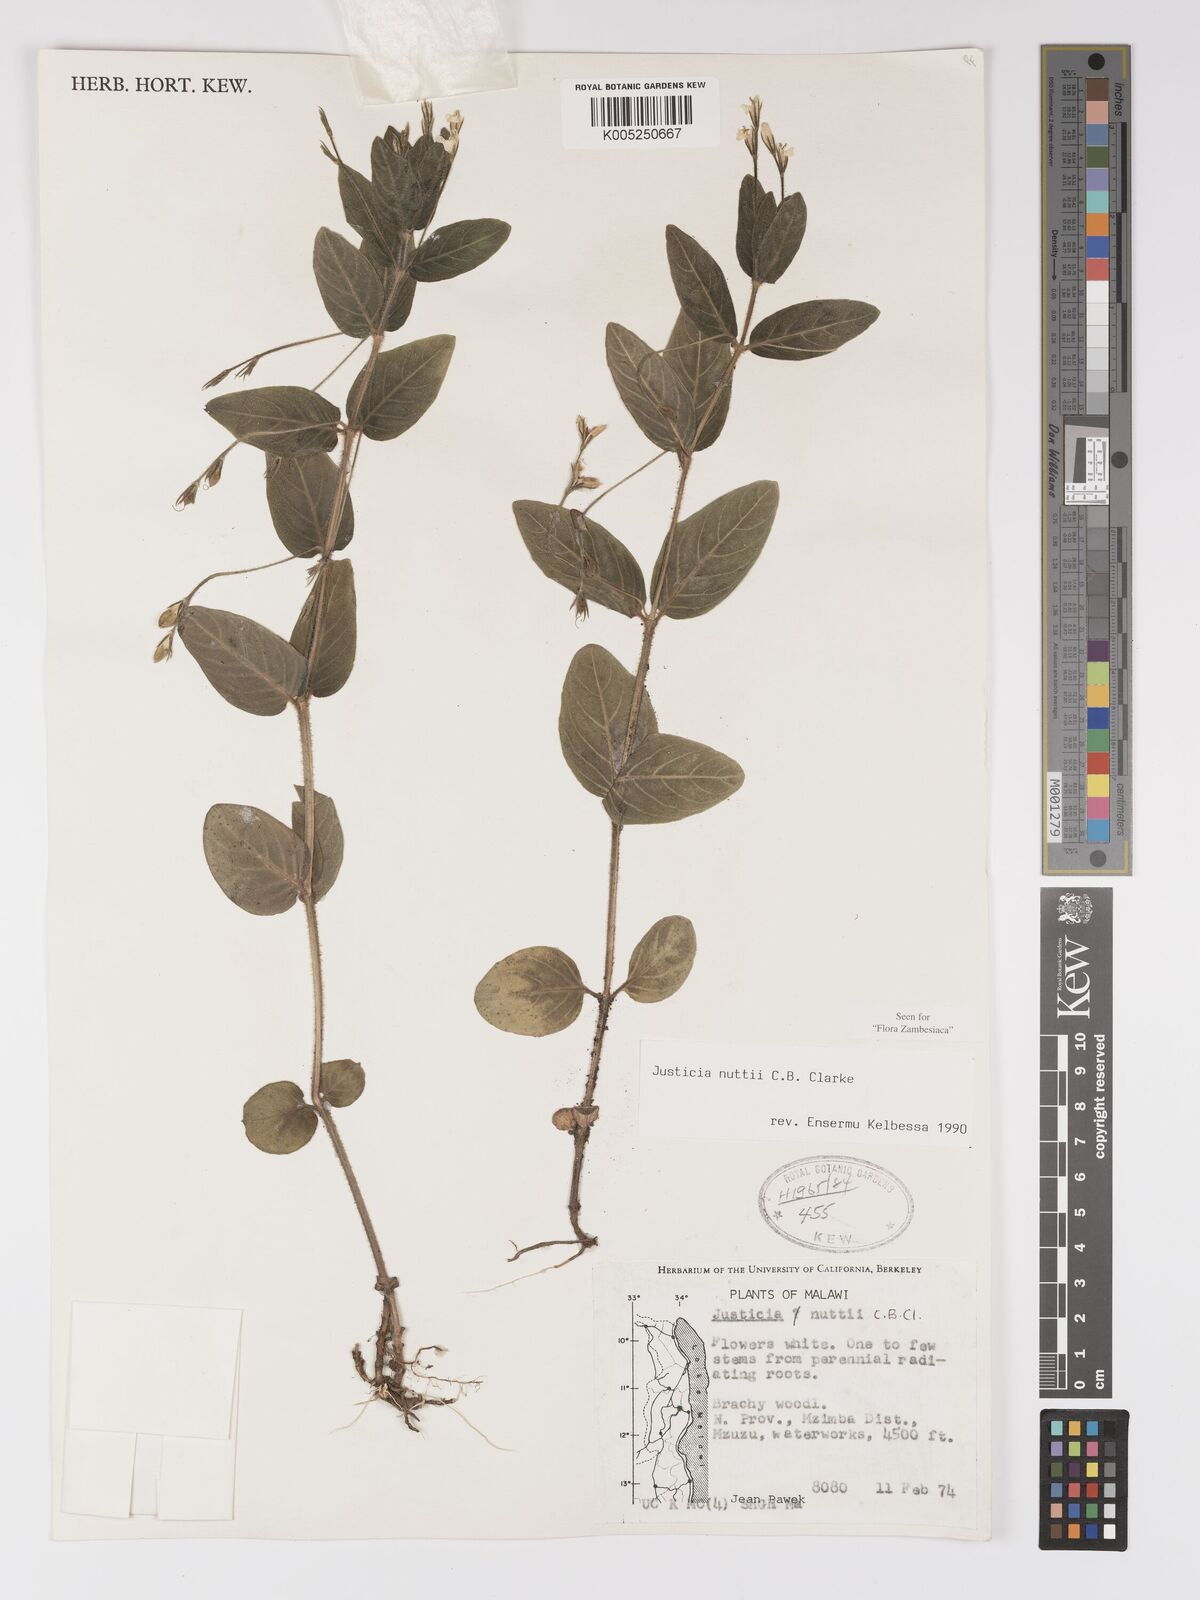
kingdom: Plantae
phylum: Tracheophyta
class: Magnoliopsida
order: Lamiales
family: Acanthaceae
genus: Justicia
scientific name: Justicia nuttii
